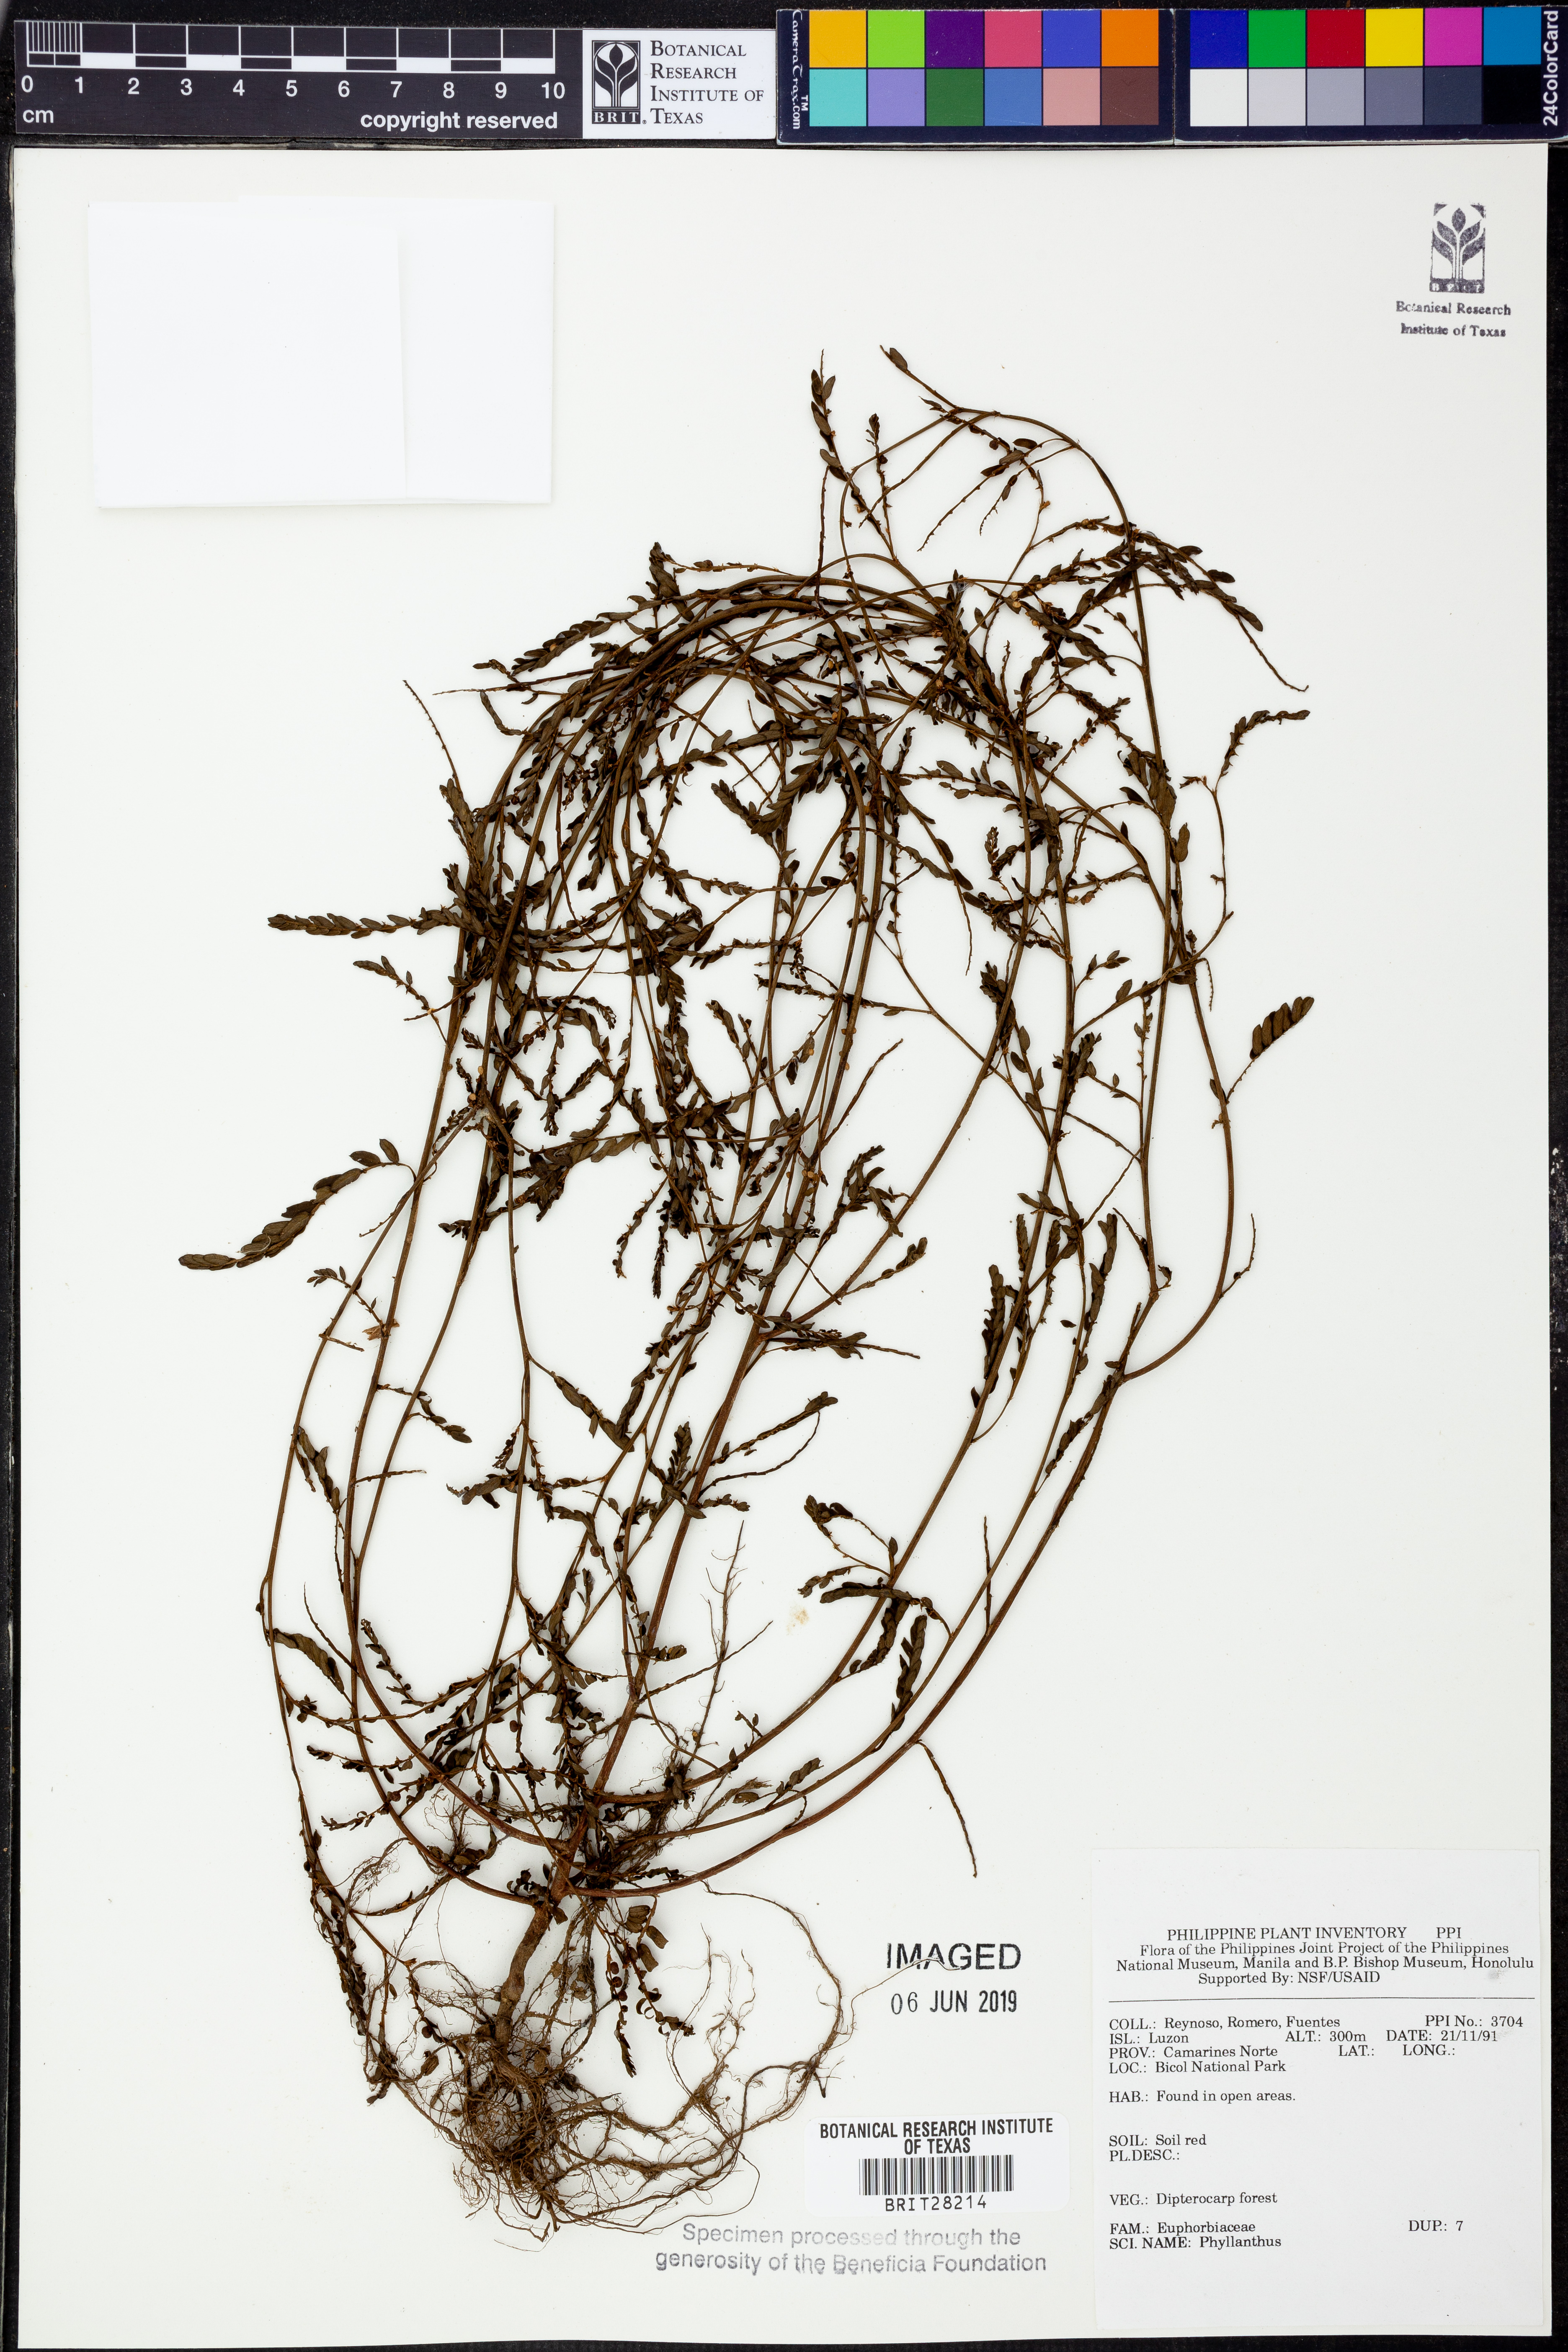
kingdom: Plantae
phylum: Tracheophyta
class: Magnoliopsida
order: Malpighiales
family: Phyllanthaceae
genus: Phyllanthus
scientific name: Phyllanthus
